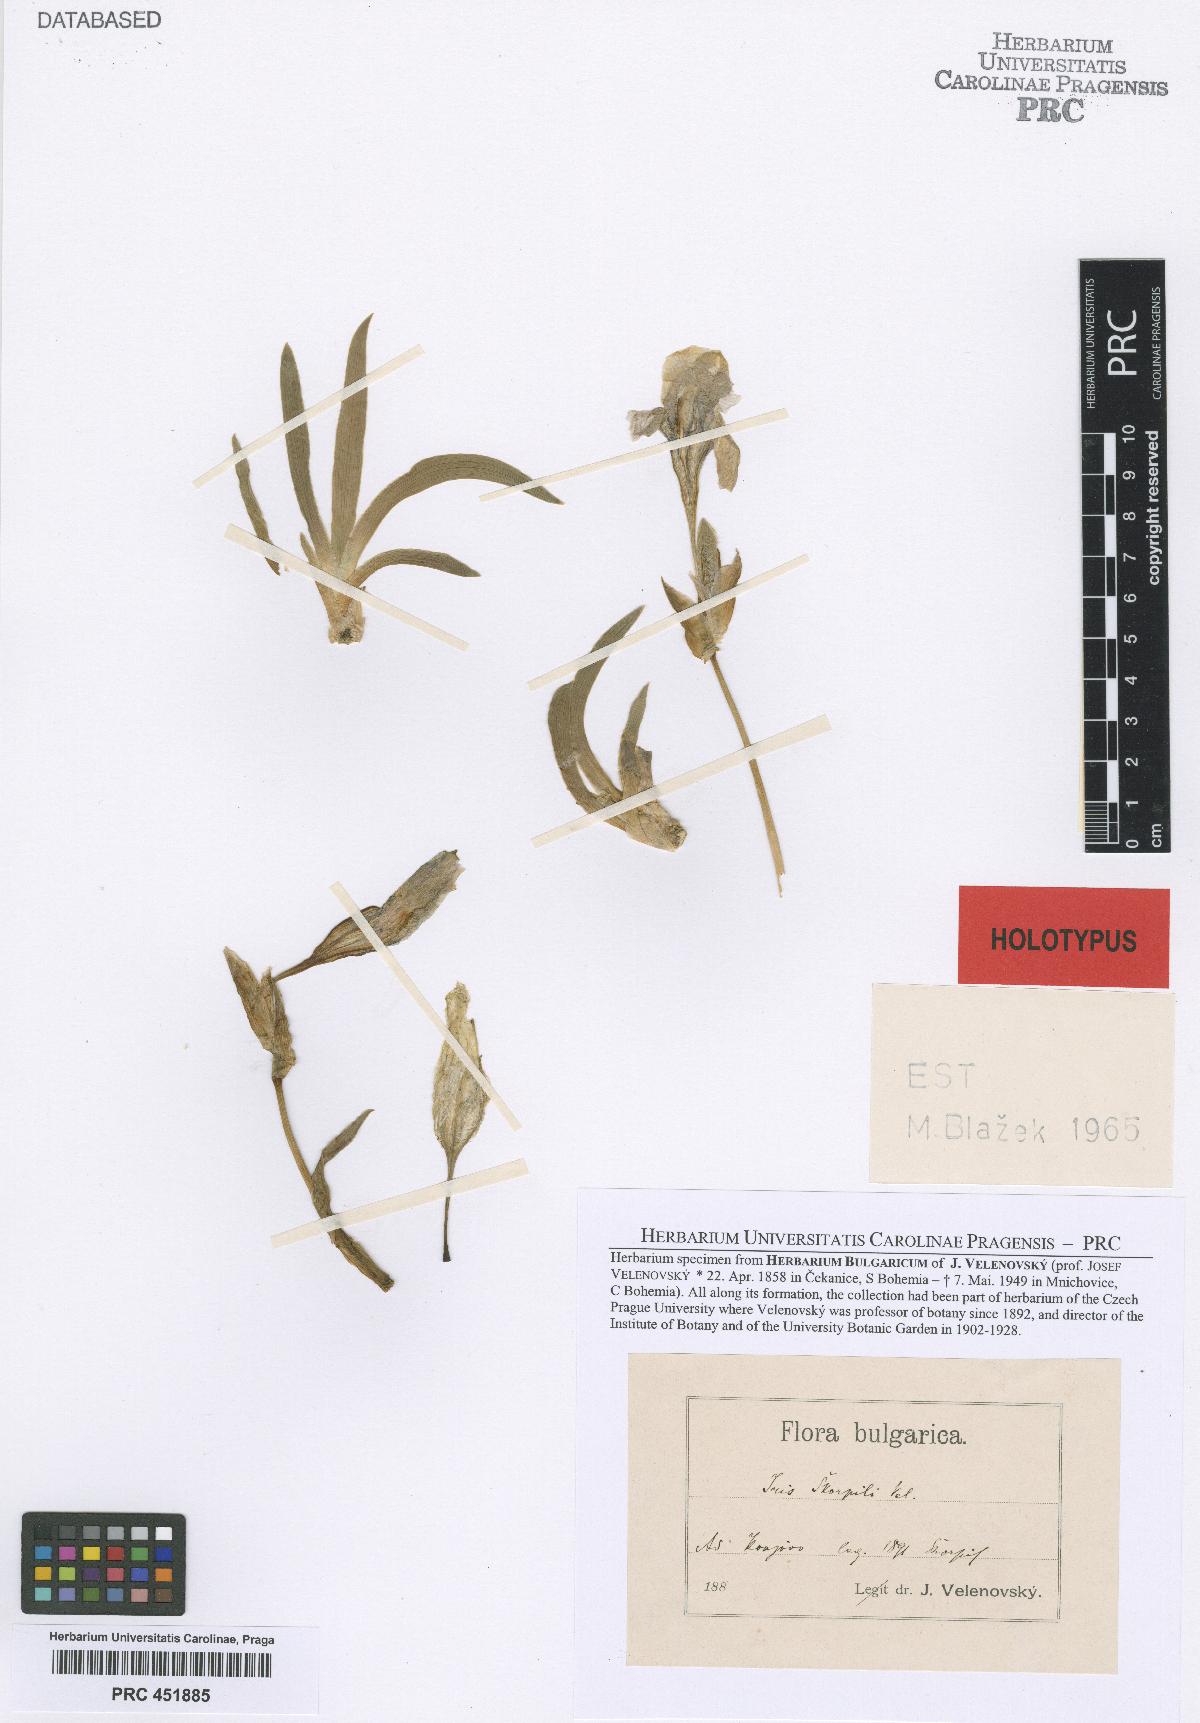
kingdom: Plantae
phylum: Tracheophyta
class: Liliopsida
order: Asparagales
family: Iridaceae
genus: Iris
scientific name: Iris reichenbachii
